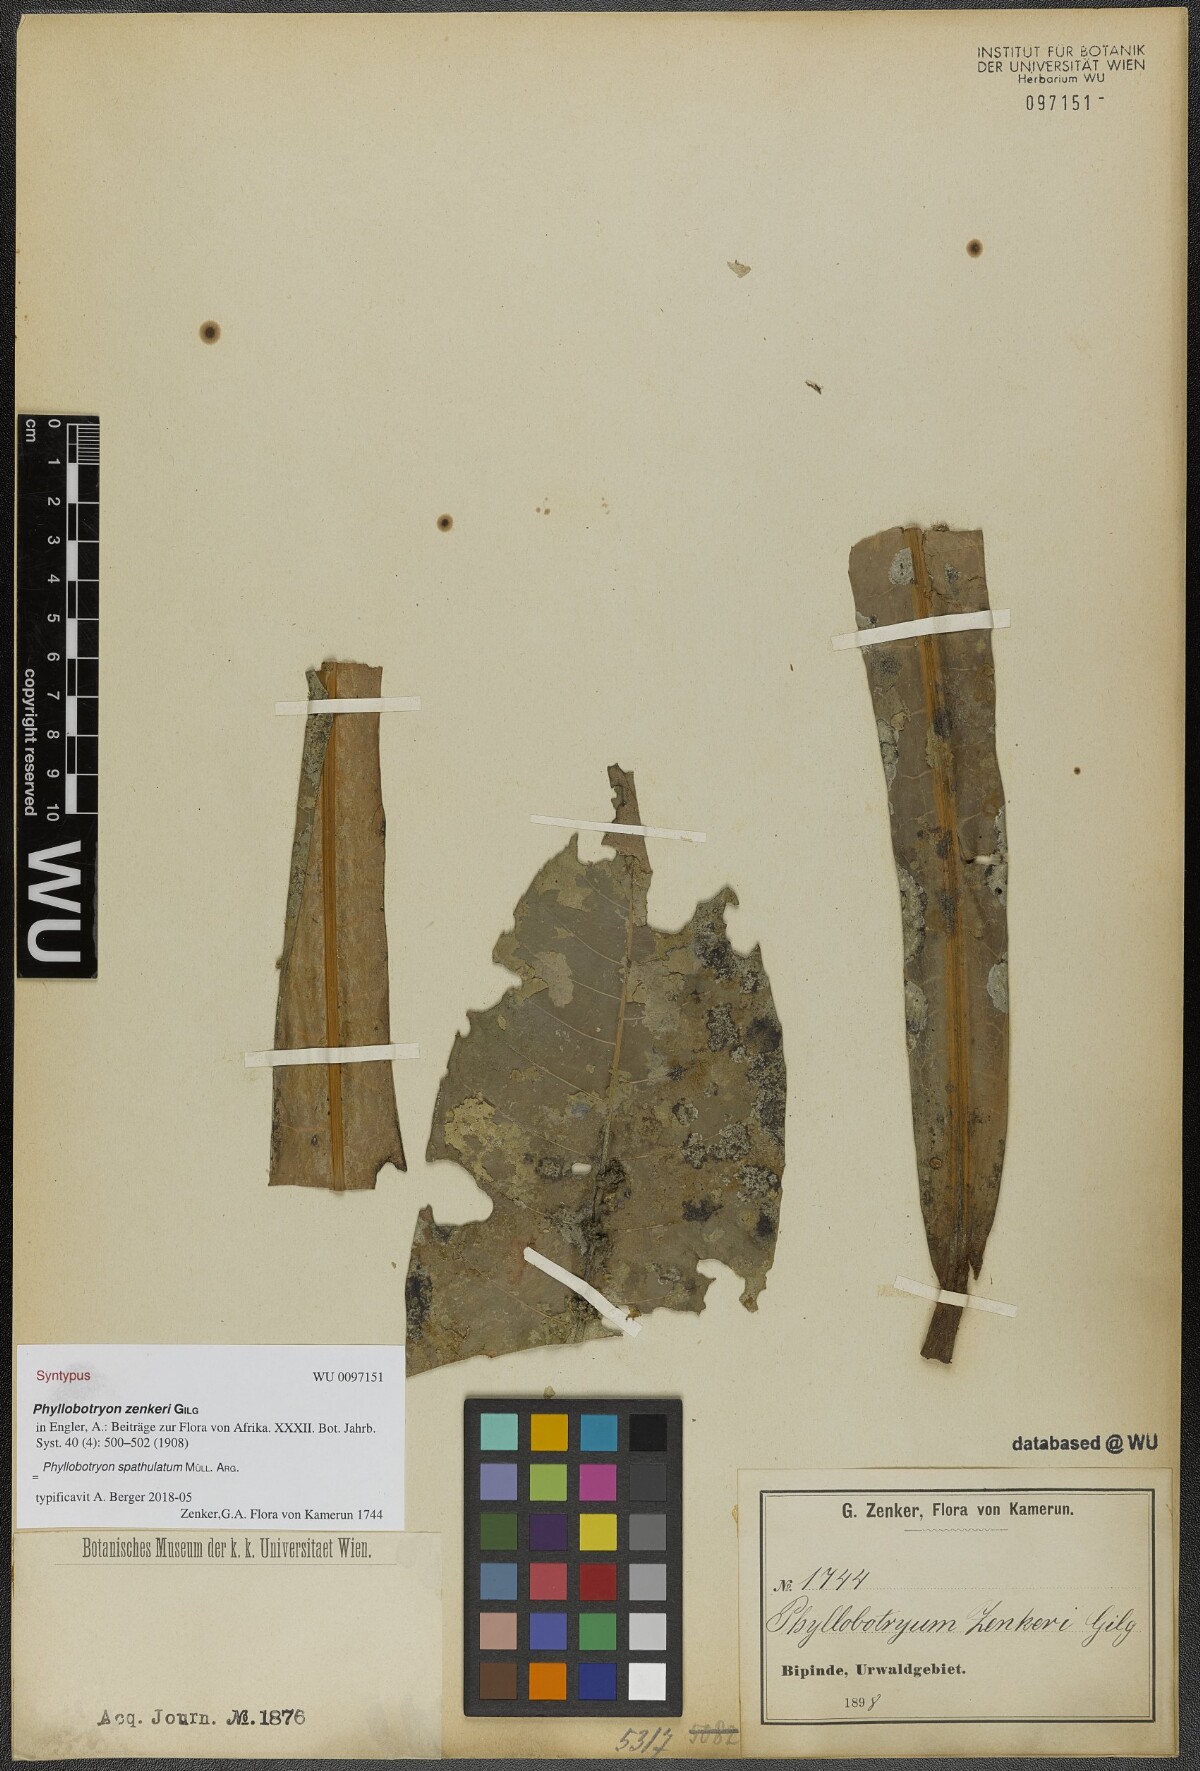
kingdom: Plantae
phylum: Tracheophyta
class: Magnoliopsida
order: Malpighiales
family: Salicaceae
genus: Phyllobotryon
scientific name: Phyllobotryon spathulatum
